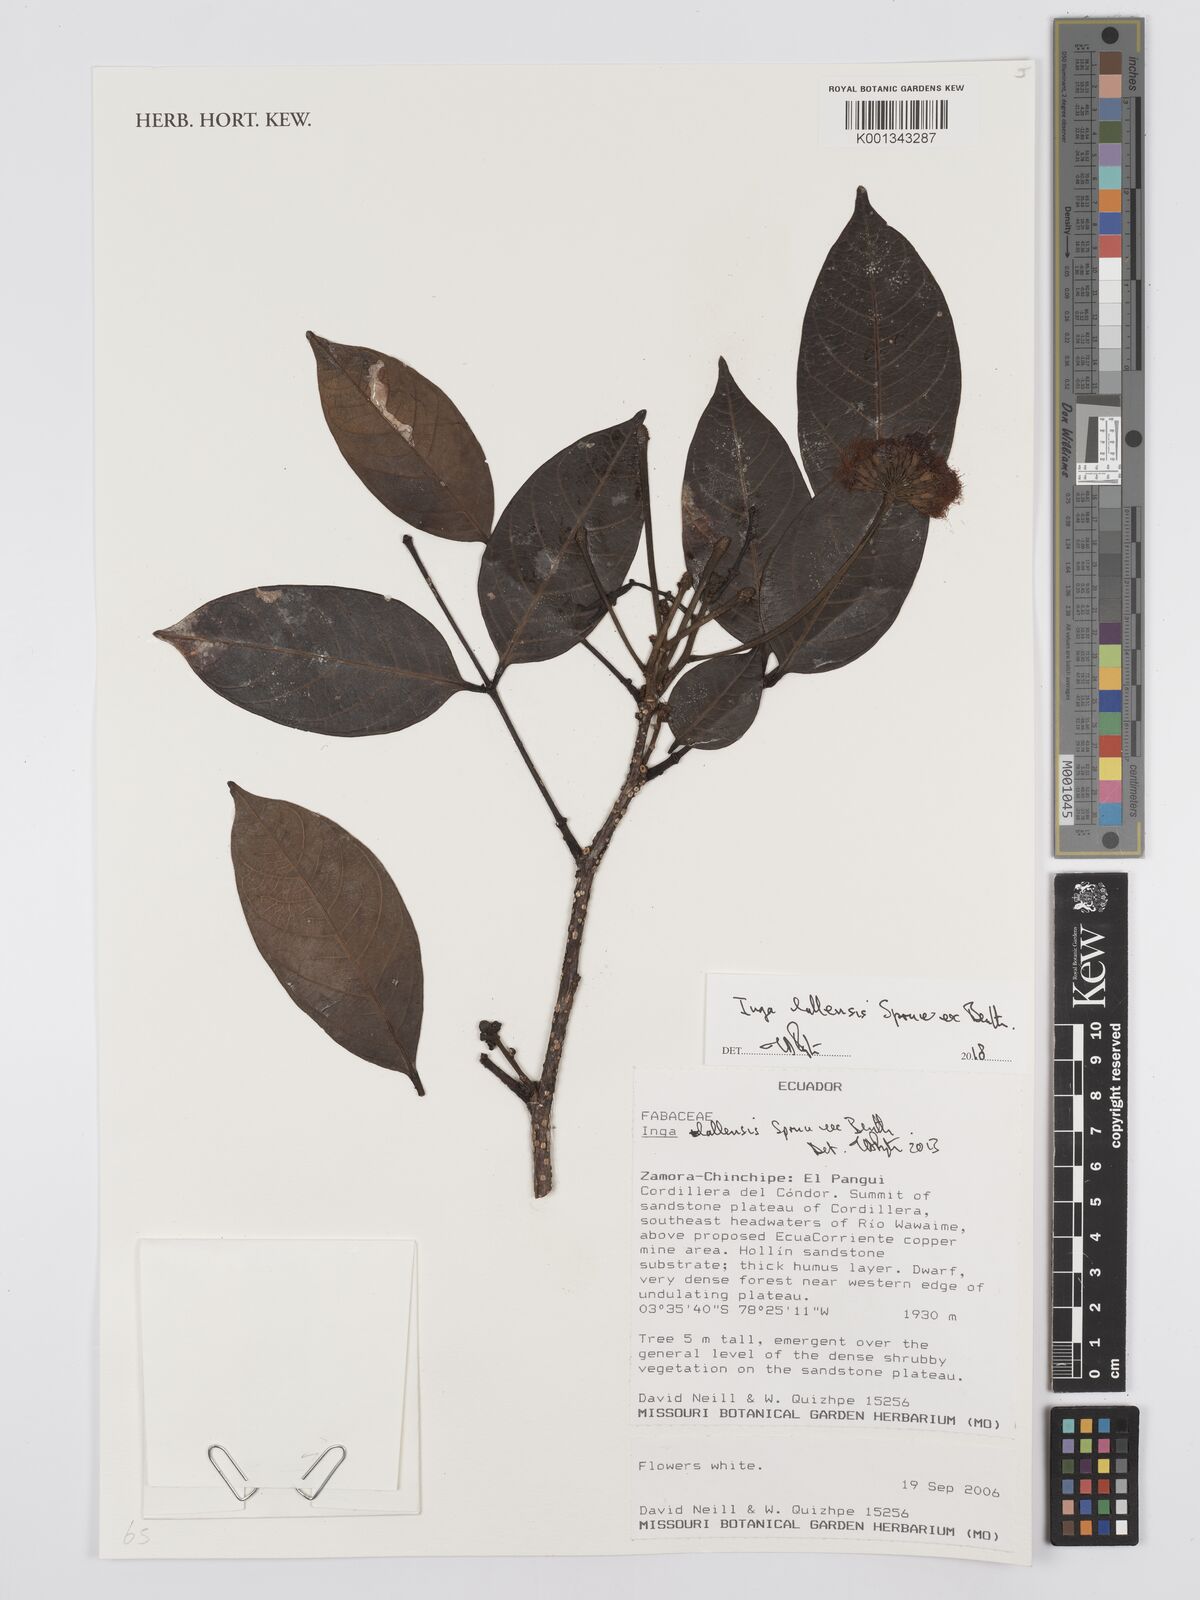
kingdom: Plantae
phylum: Tracheophyta
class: Magnoliopsida
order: Fabales
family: Fabaceae
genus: Inga
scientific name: Inga lallensis
